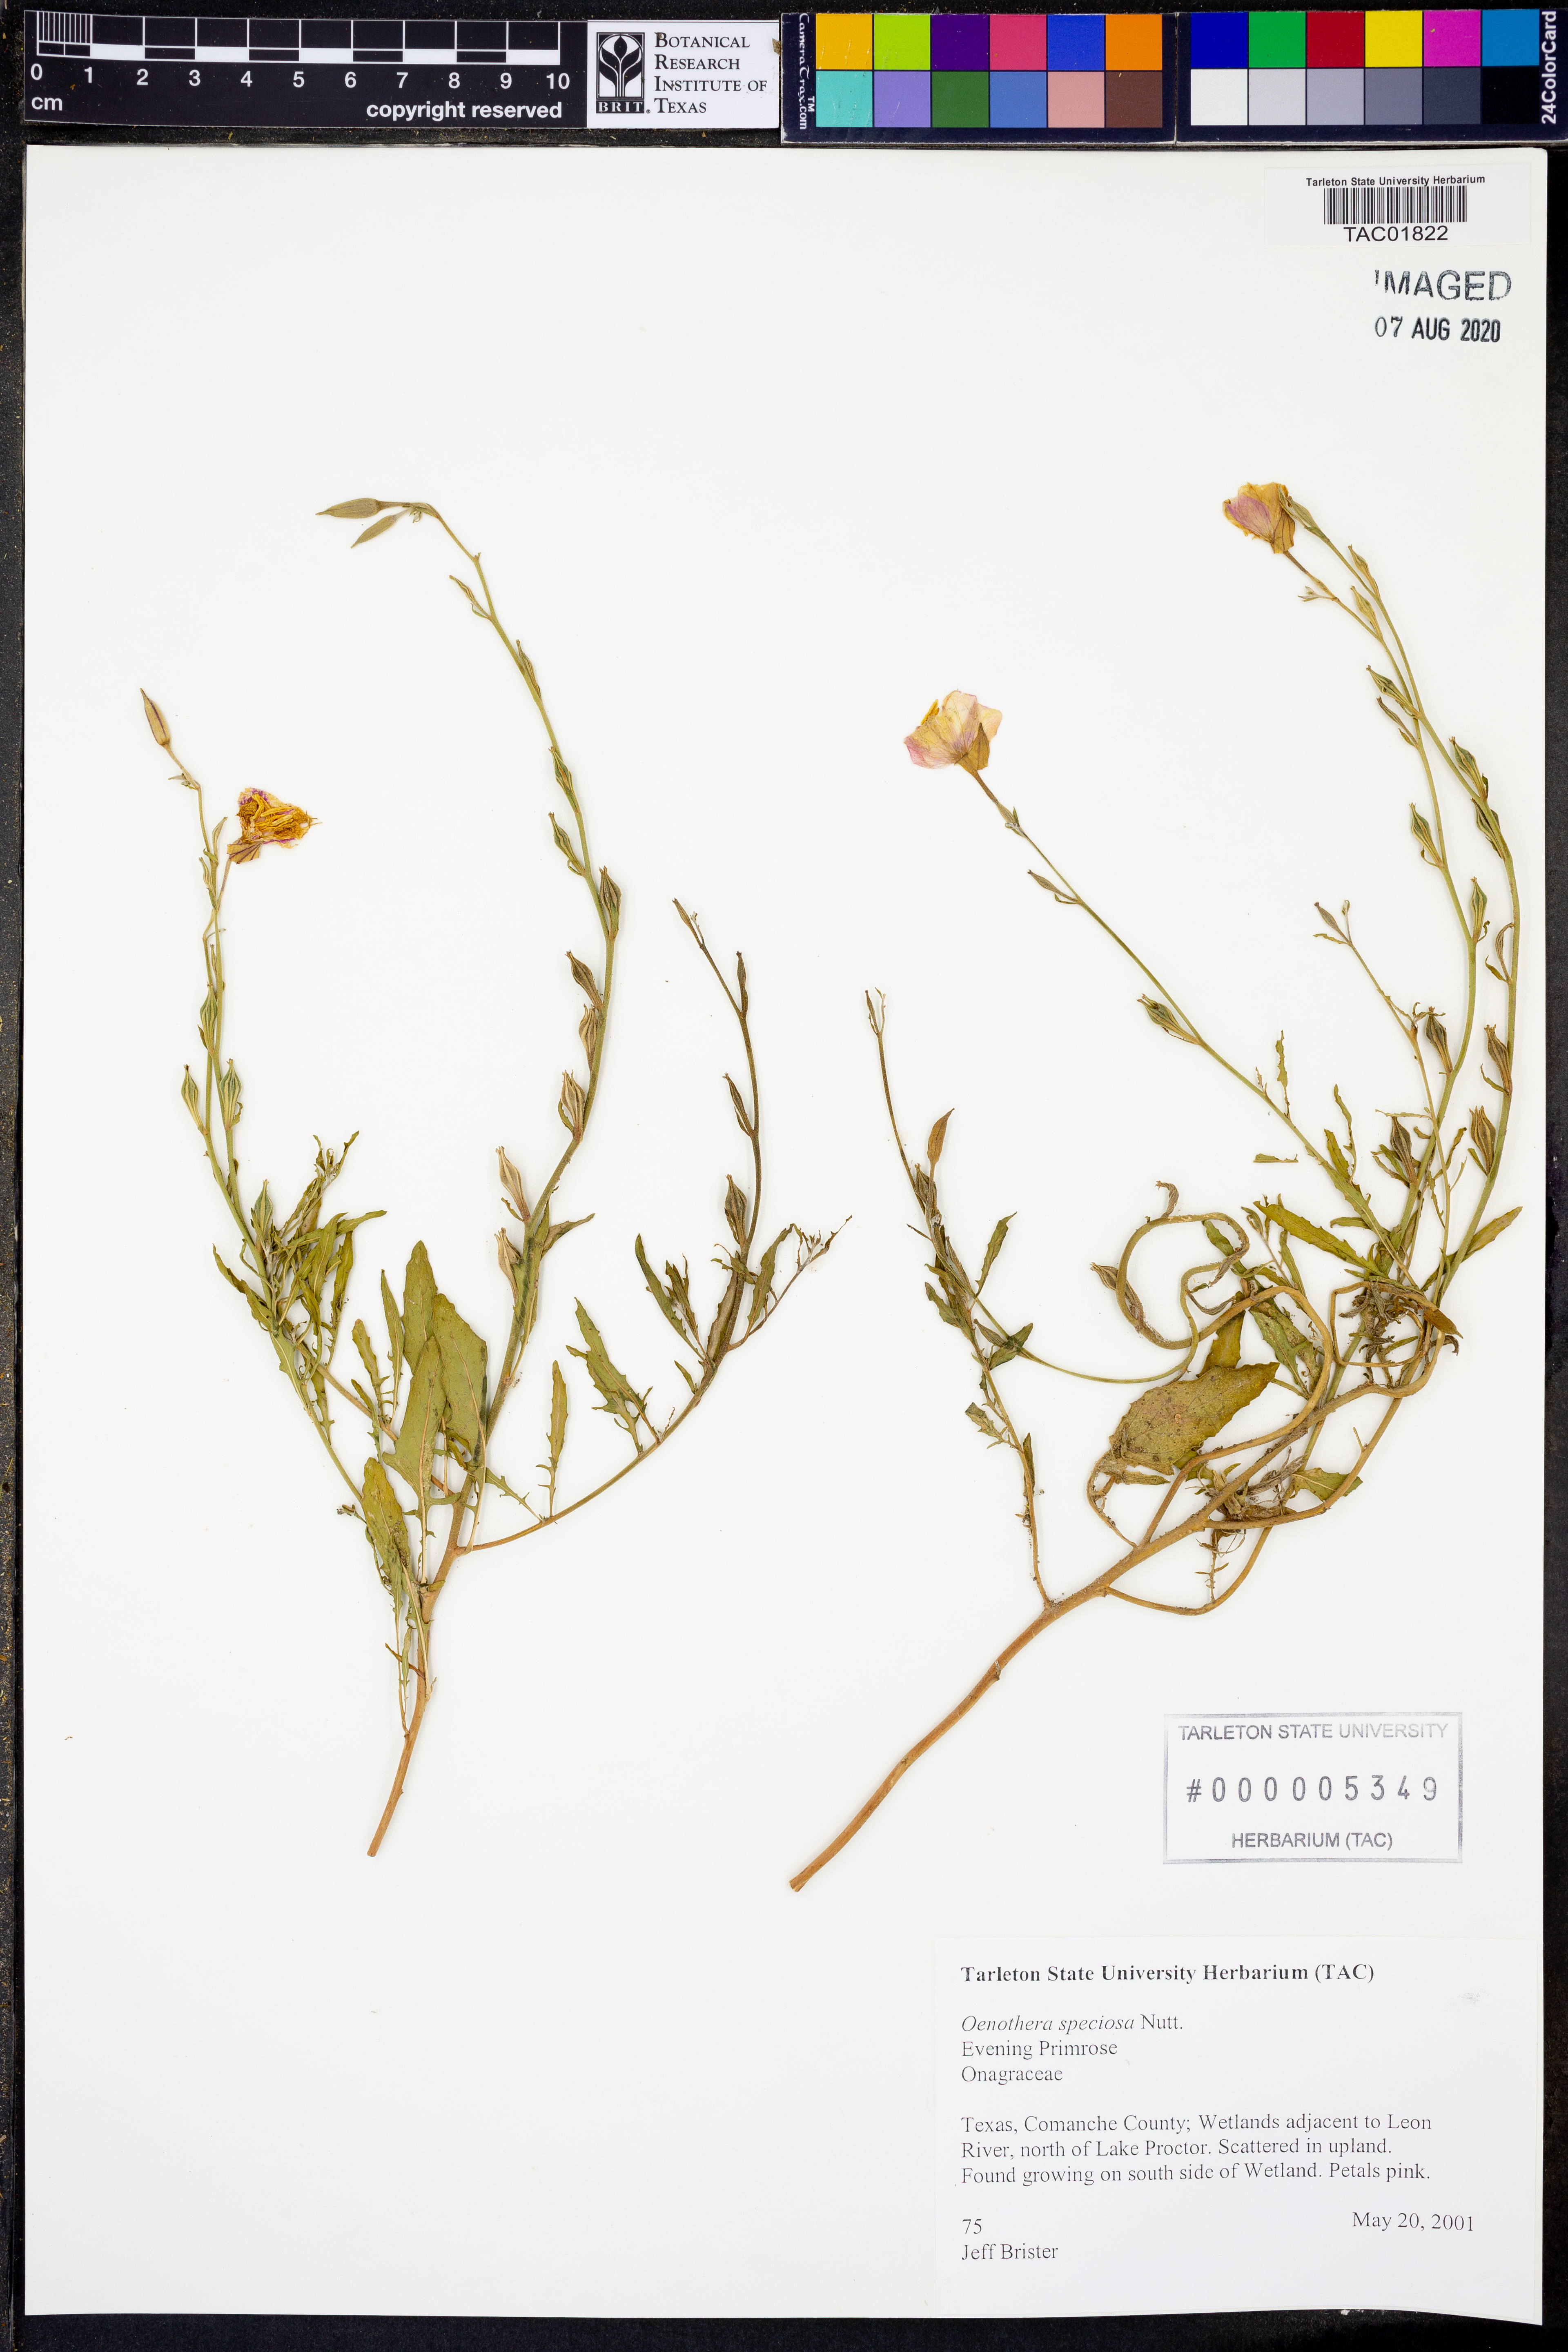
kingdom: Plantae
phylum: Tracheophyta
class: Magnoliopsida
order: Myrtales
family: Onagraceae
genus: Oenothera
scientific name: Oenothera speciosa
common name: White evening-primrose
